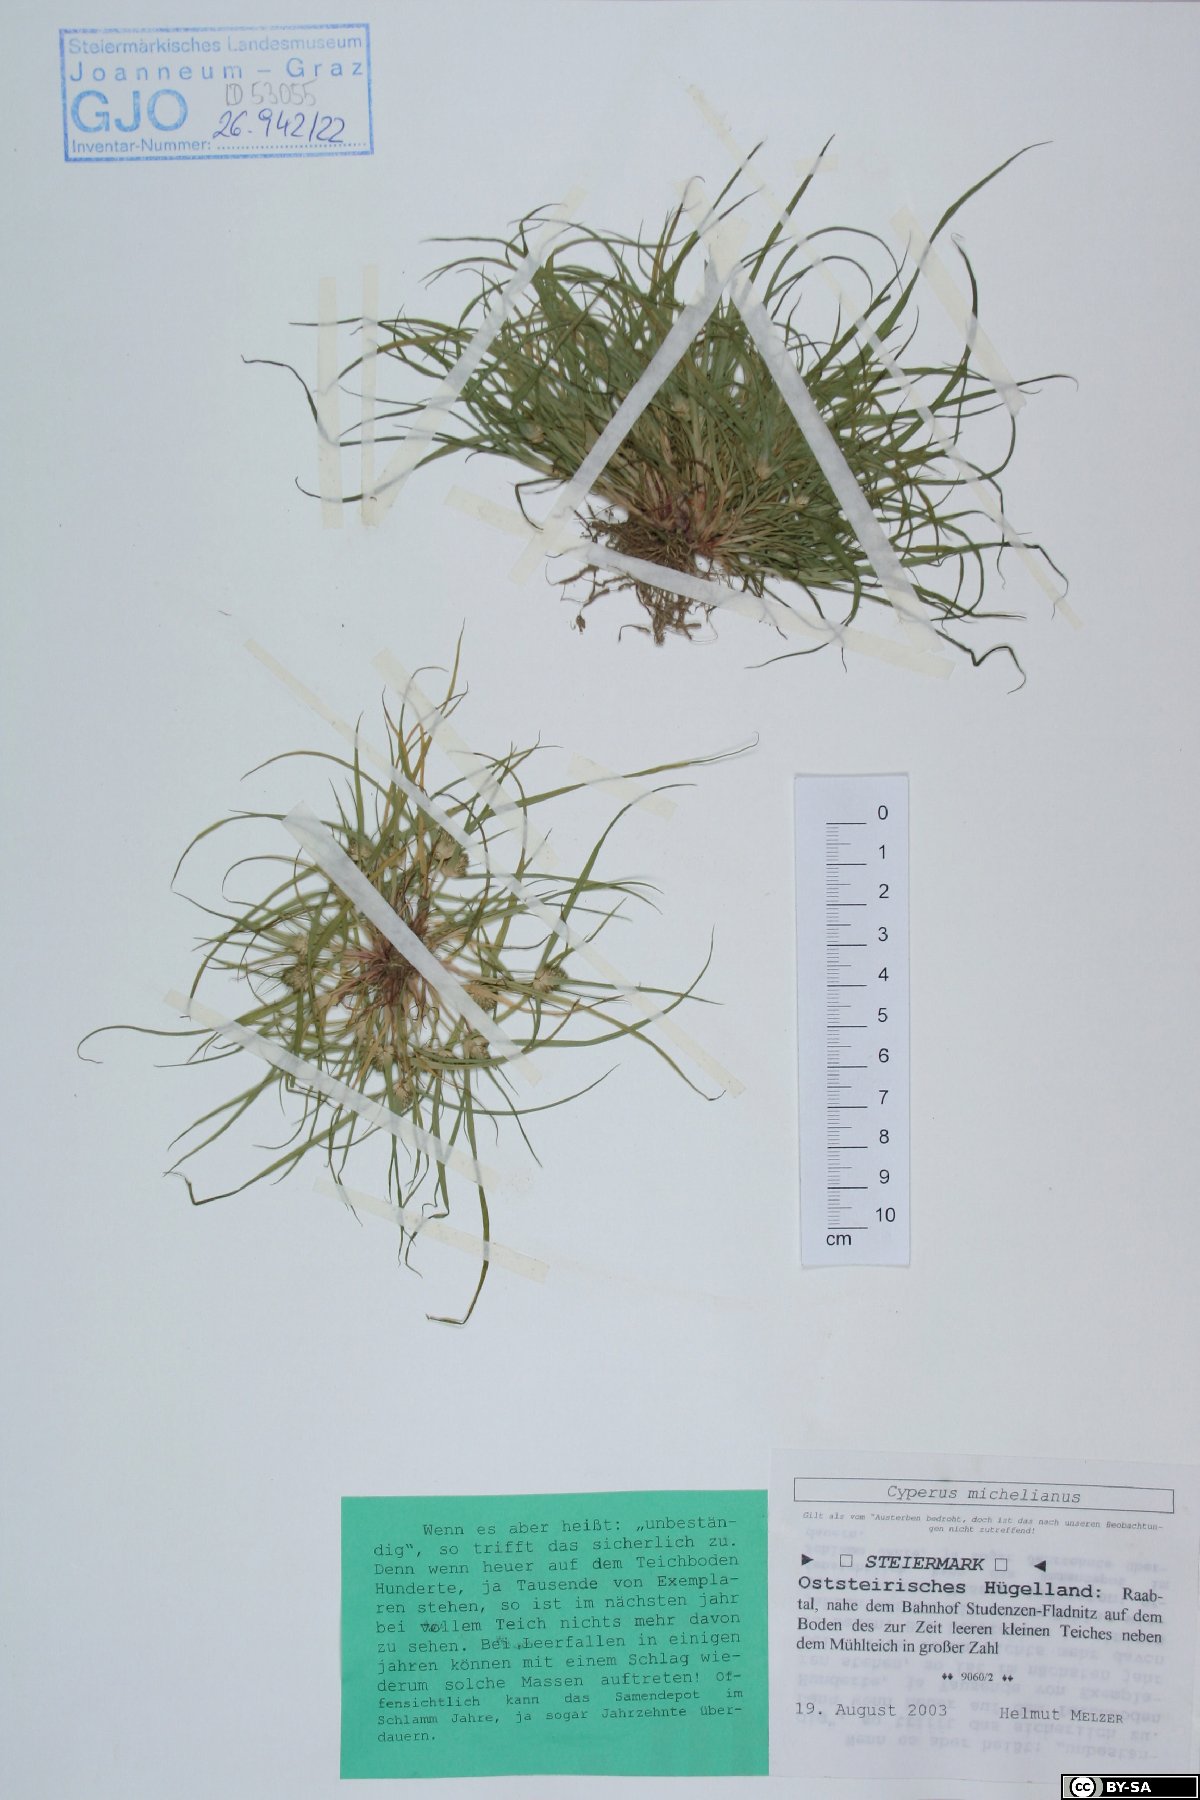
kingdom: Plantae
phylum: Tracheophyta
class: Liliopsida
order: Poales
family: Cyperaceae
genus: Cyperus
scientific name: Cyperus michelianus
